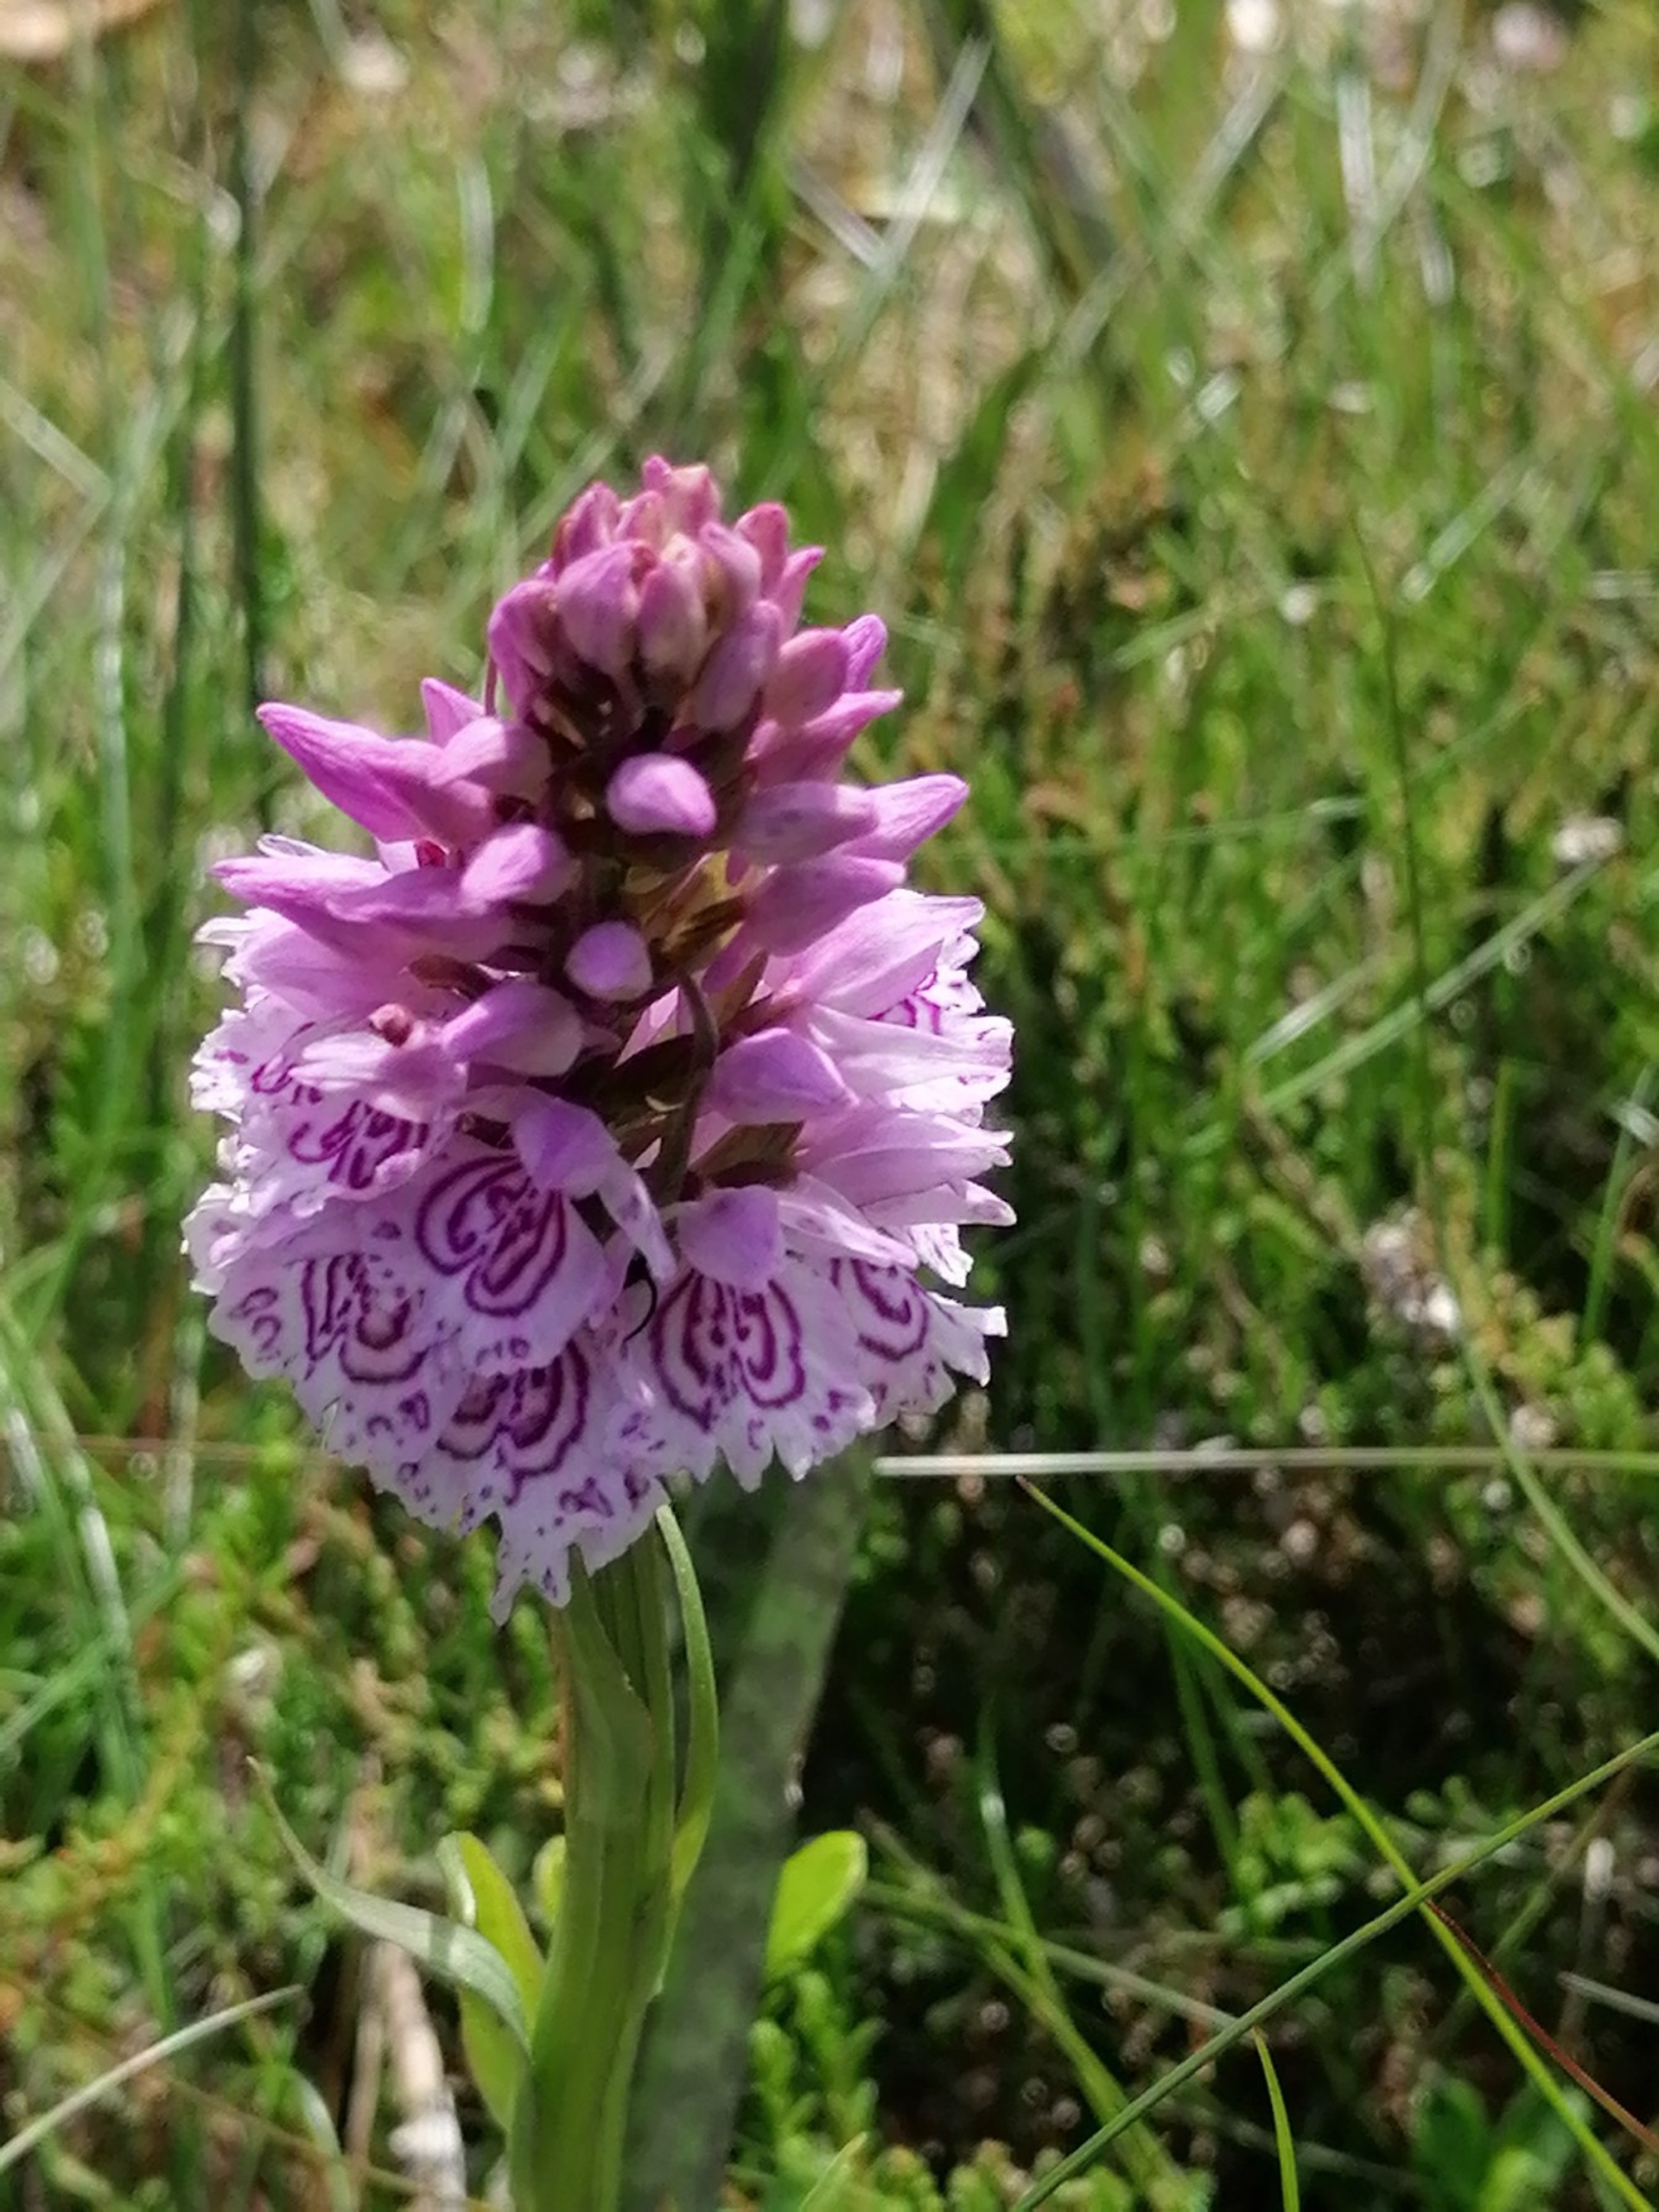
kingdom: Plantae
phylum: Tracheophyta
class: Liliopsida
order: Asparagales
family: Orchidaceae
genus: Dactylorhiza
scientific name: Dactylorhiza maculata
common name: Plettet gøgeurt
